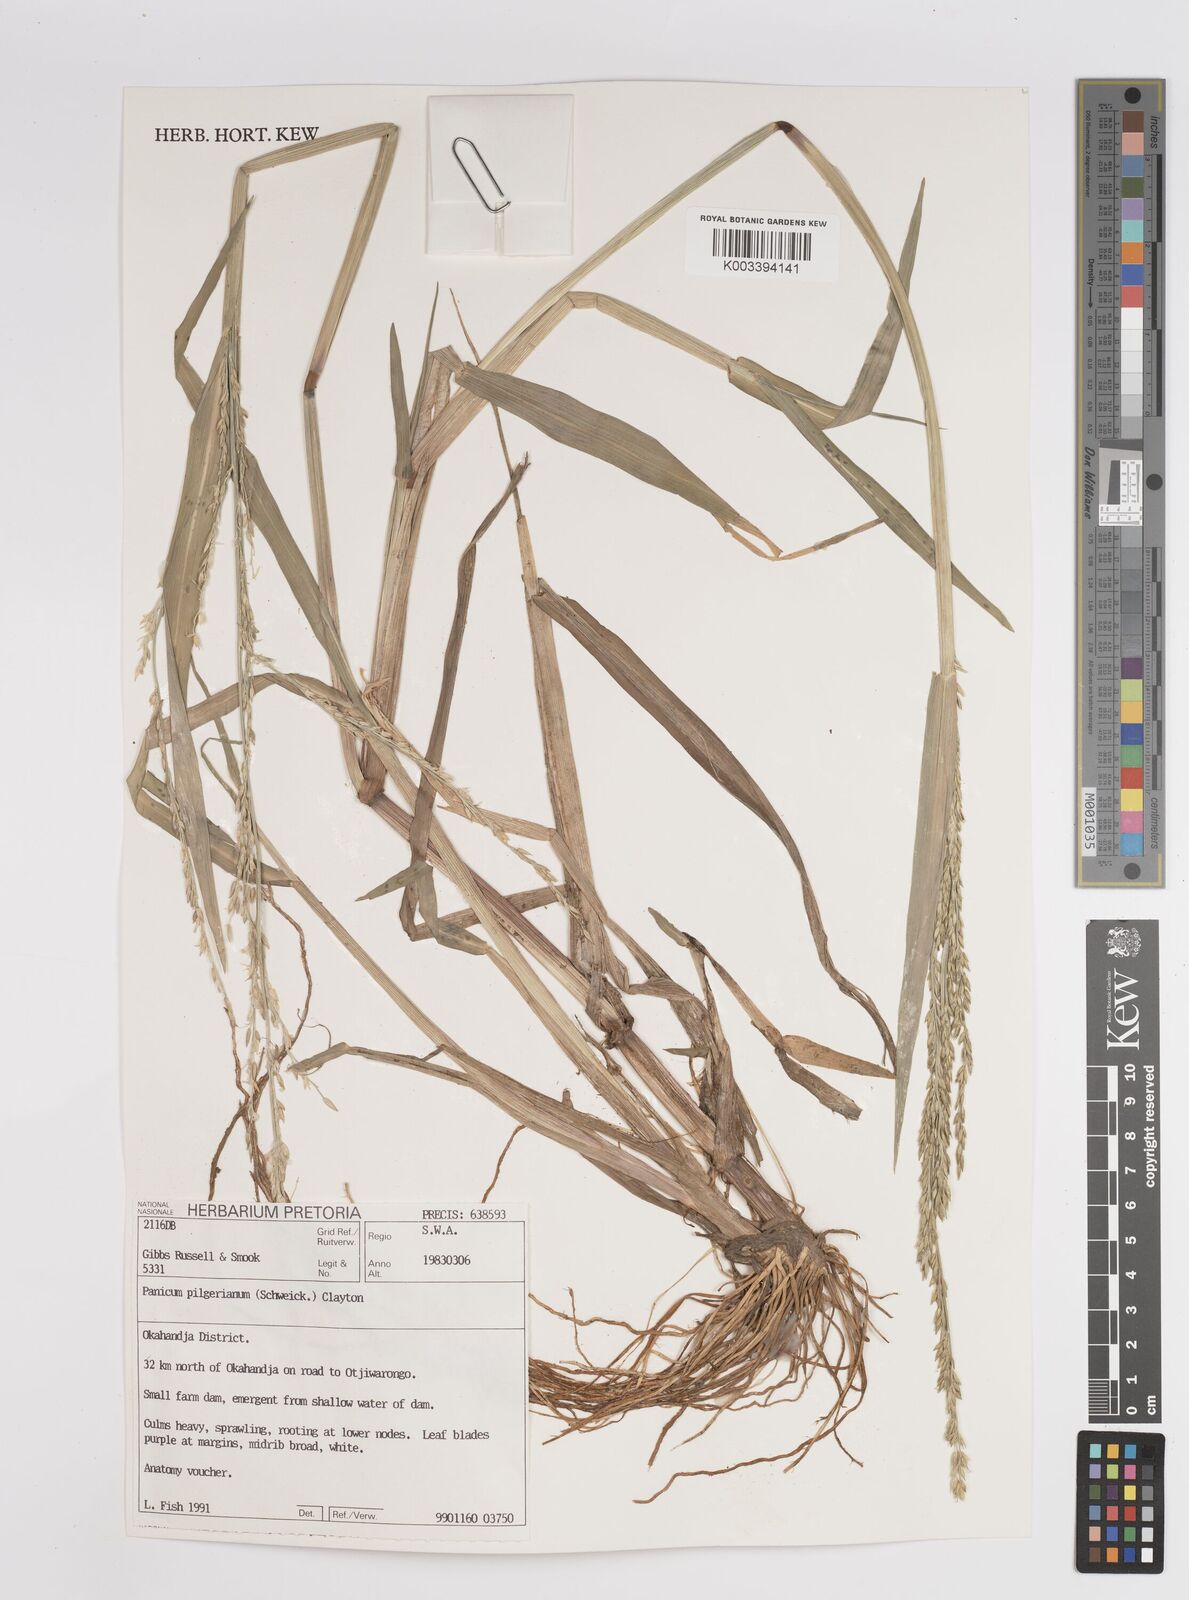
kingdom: Plantae
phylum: Tracheophyta
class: Liliopsida
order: Poales
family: Poaceae
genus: Panicum
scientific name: Panicum lanipes
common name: Wolvoet panicum
